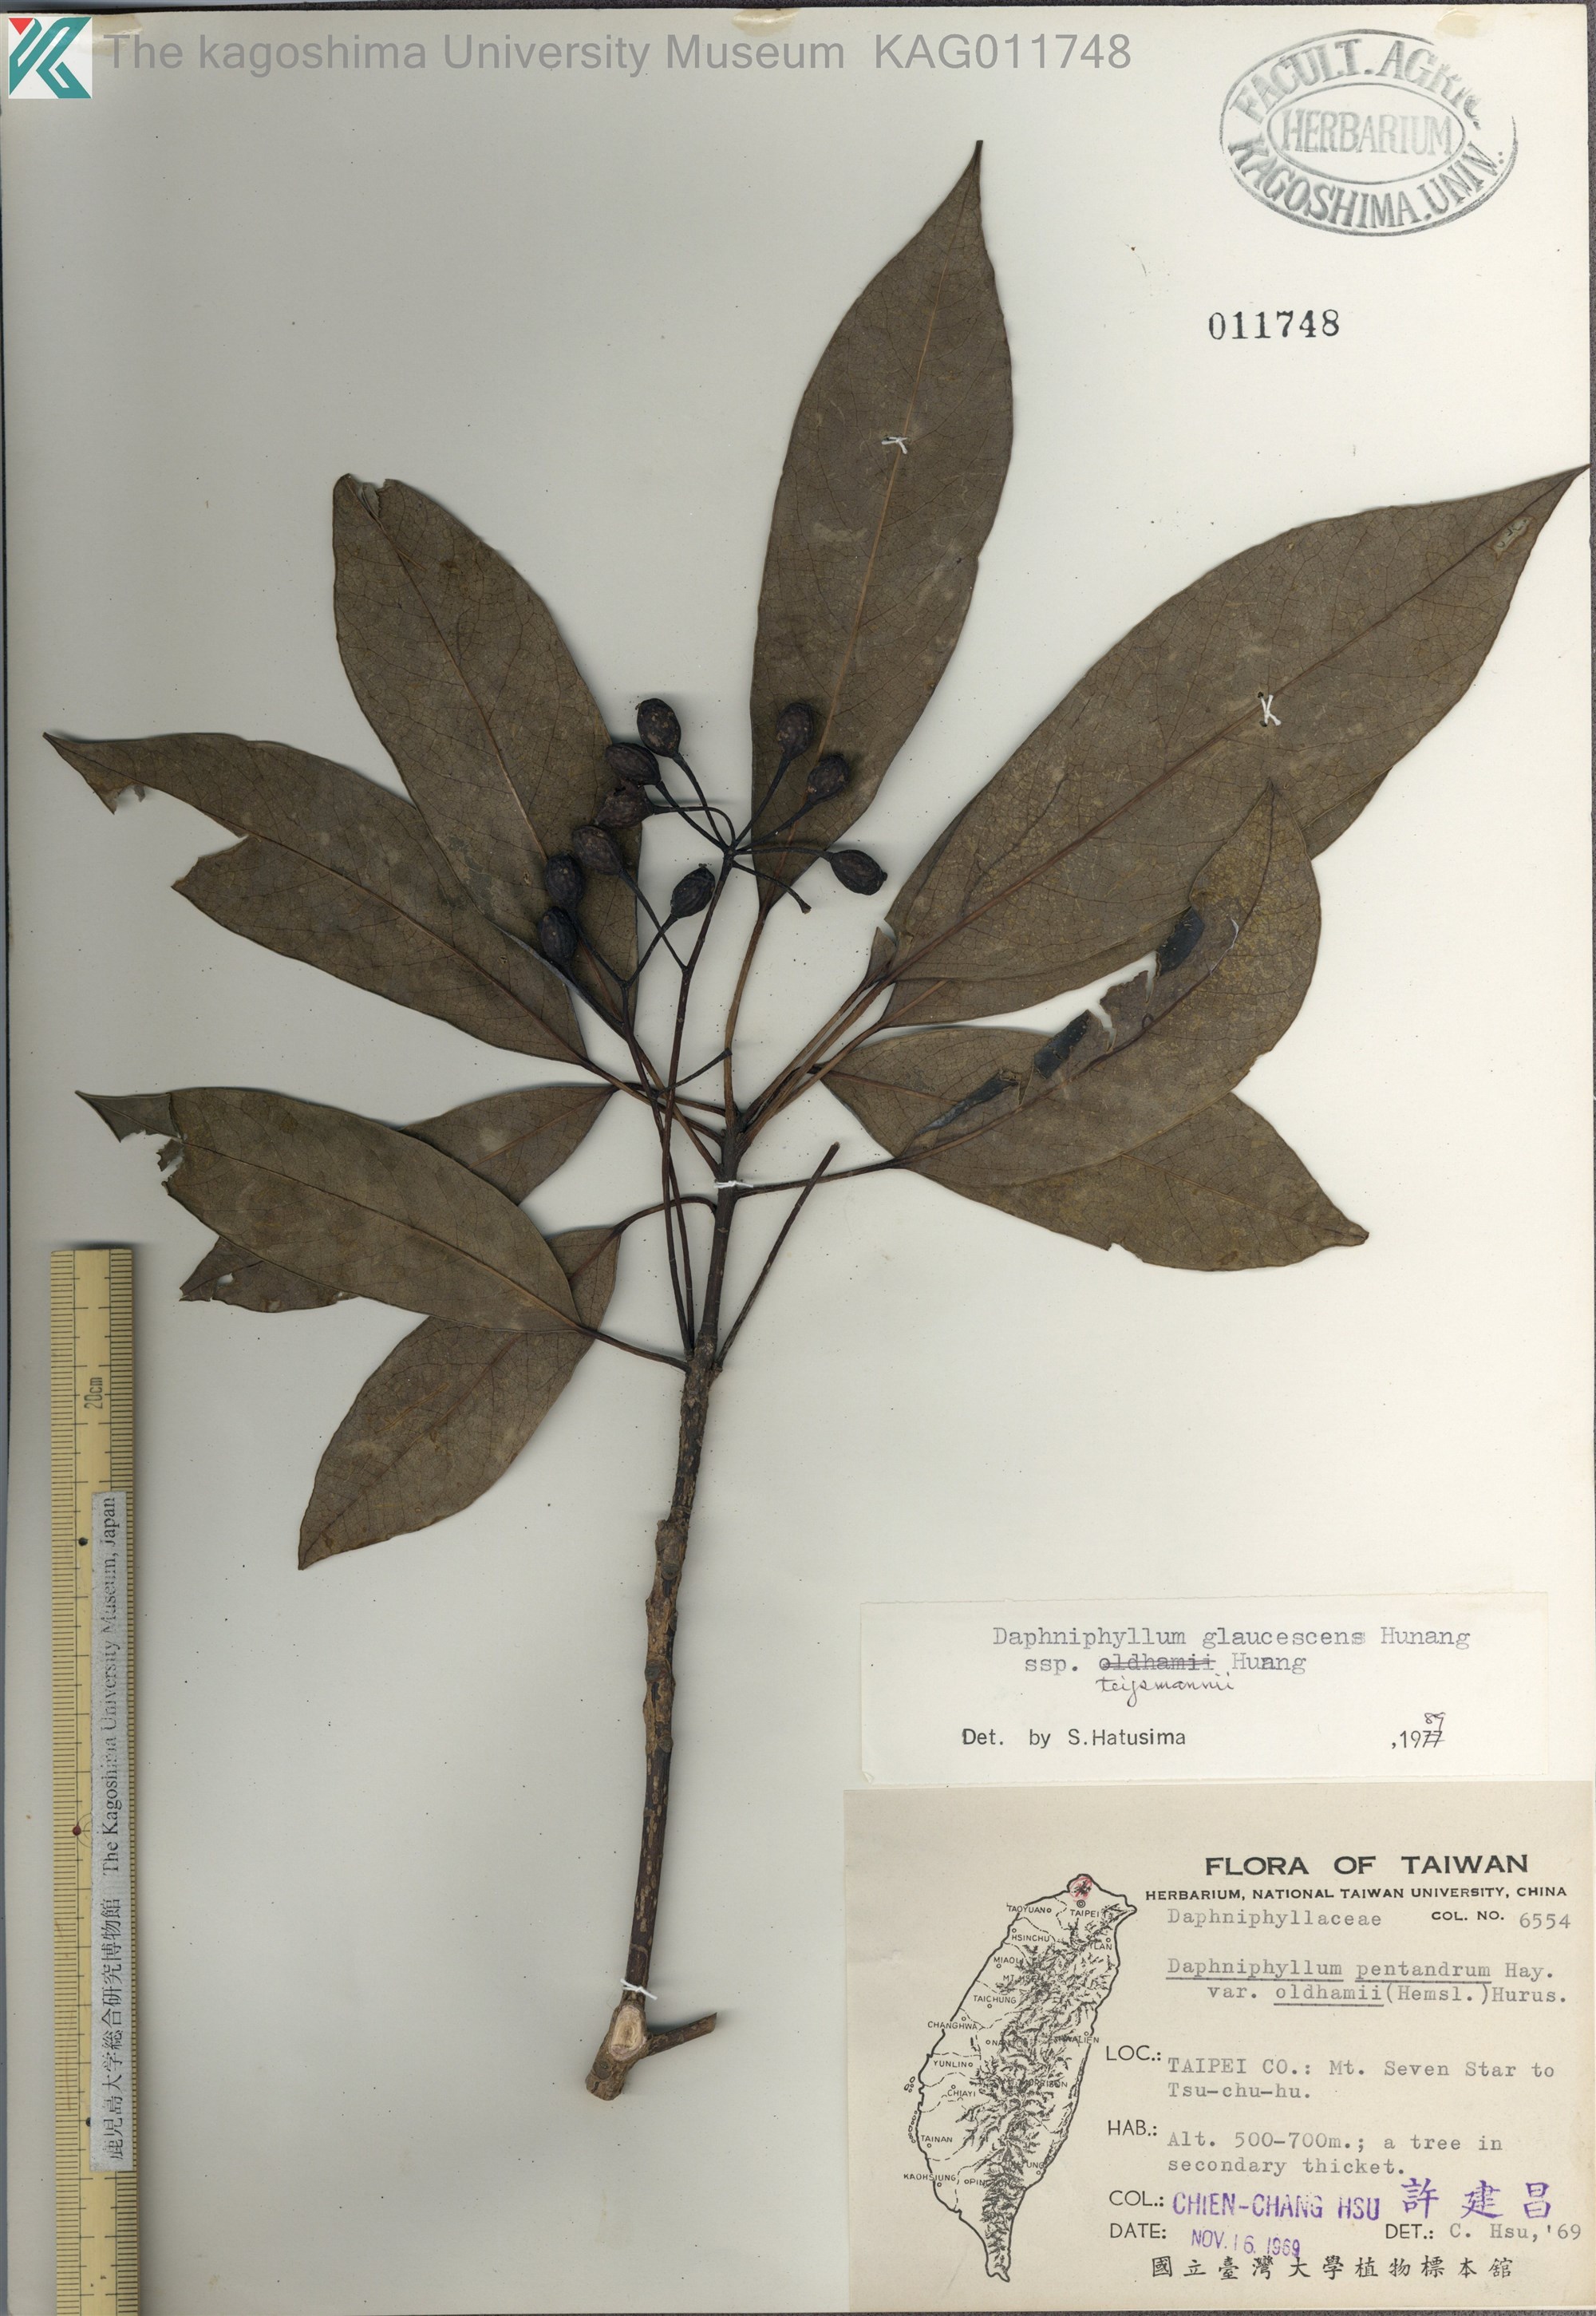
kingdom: Plantae
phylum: Tracheophyta
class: Magnoliopsida
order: Saxifragales
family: Daphniphyllaceae
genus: Daphniphyllum
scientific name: Daphniphyllum teijsmannii
